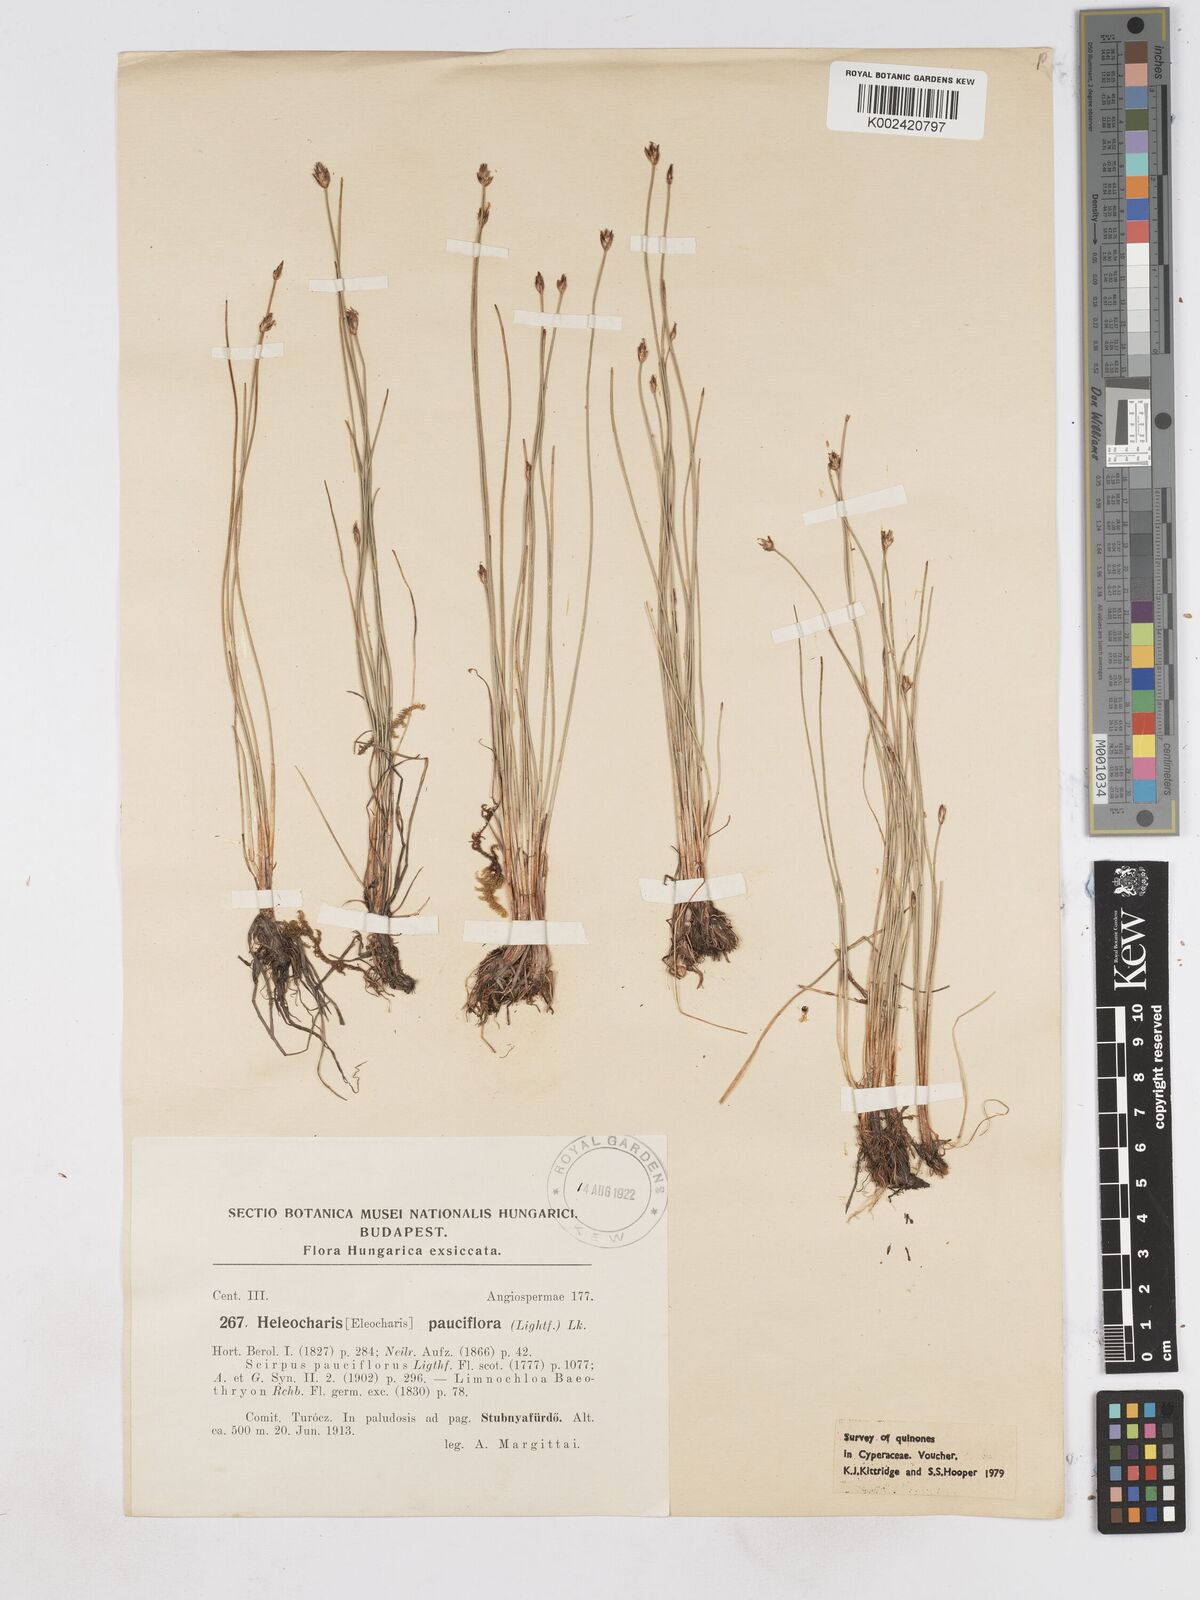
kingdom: Plantae
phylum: Tracheophyta
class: Liliopsida
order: Poales
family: Cyperaceae
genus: Eleocharis
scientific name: Eleocharis quinqueflora
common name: Few-flowered spike-rush
